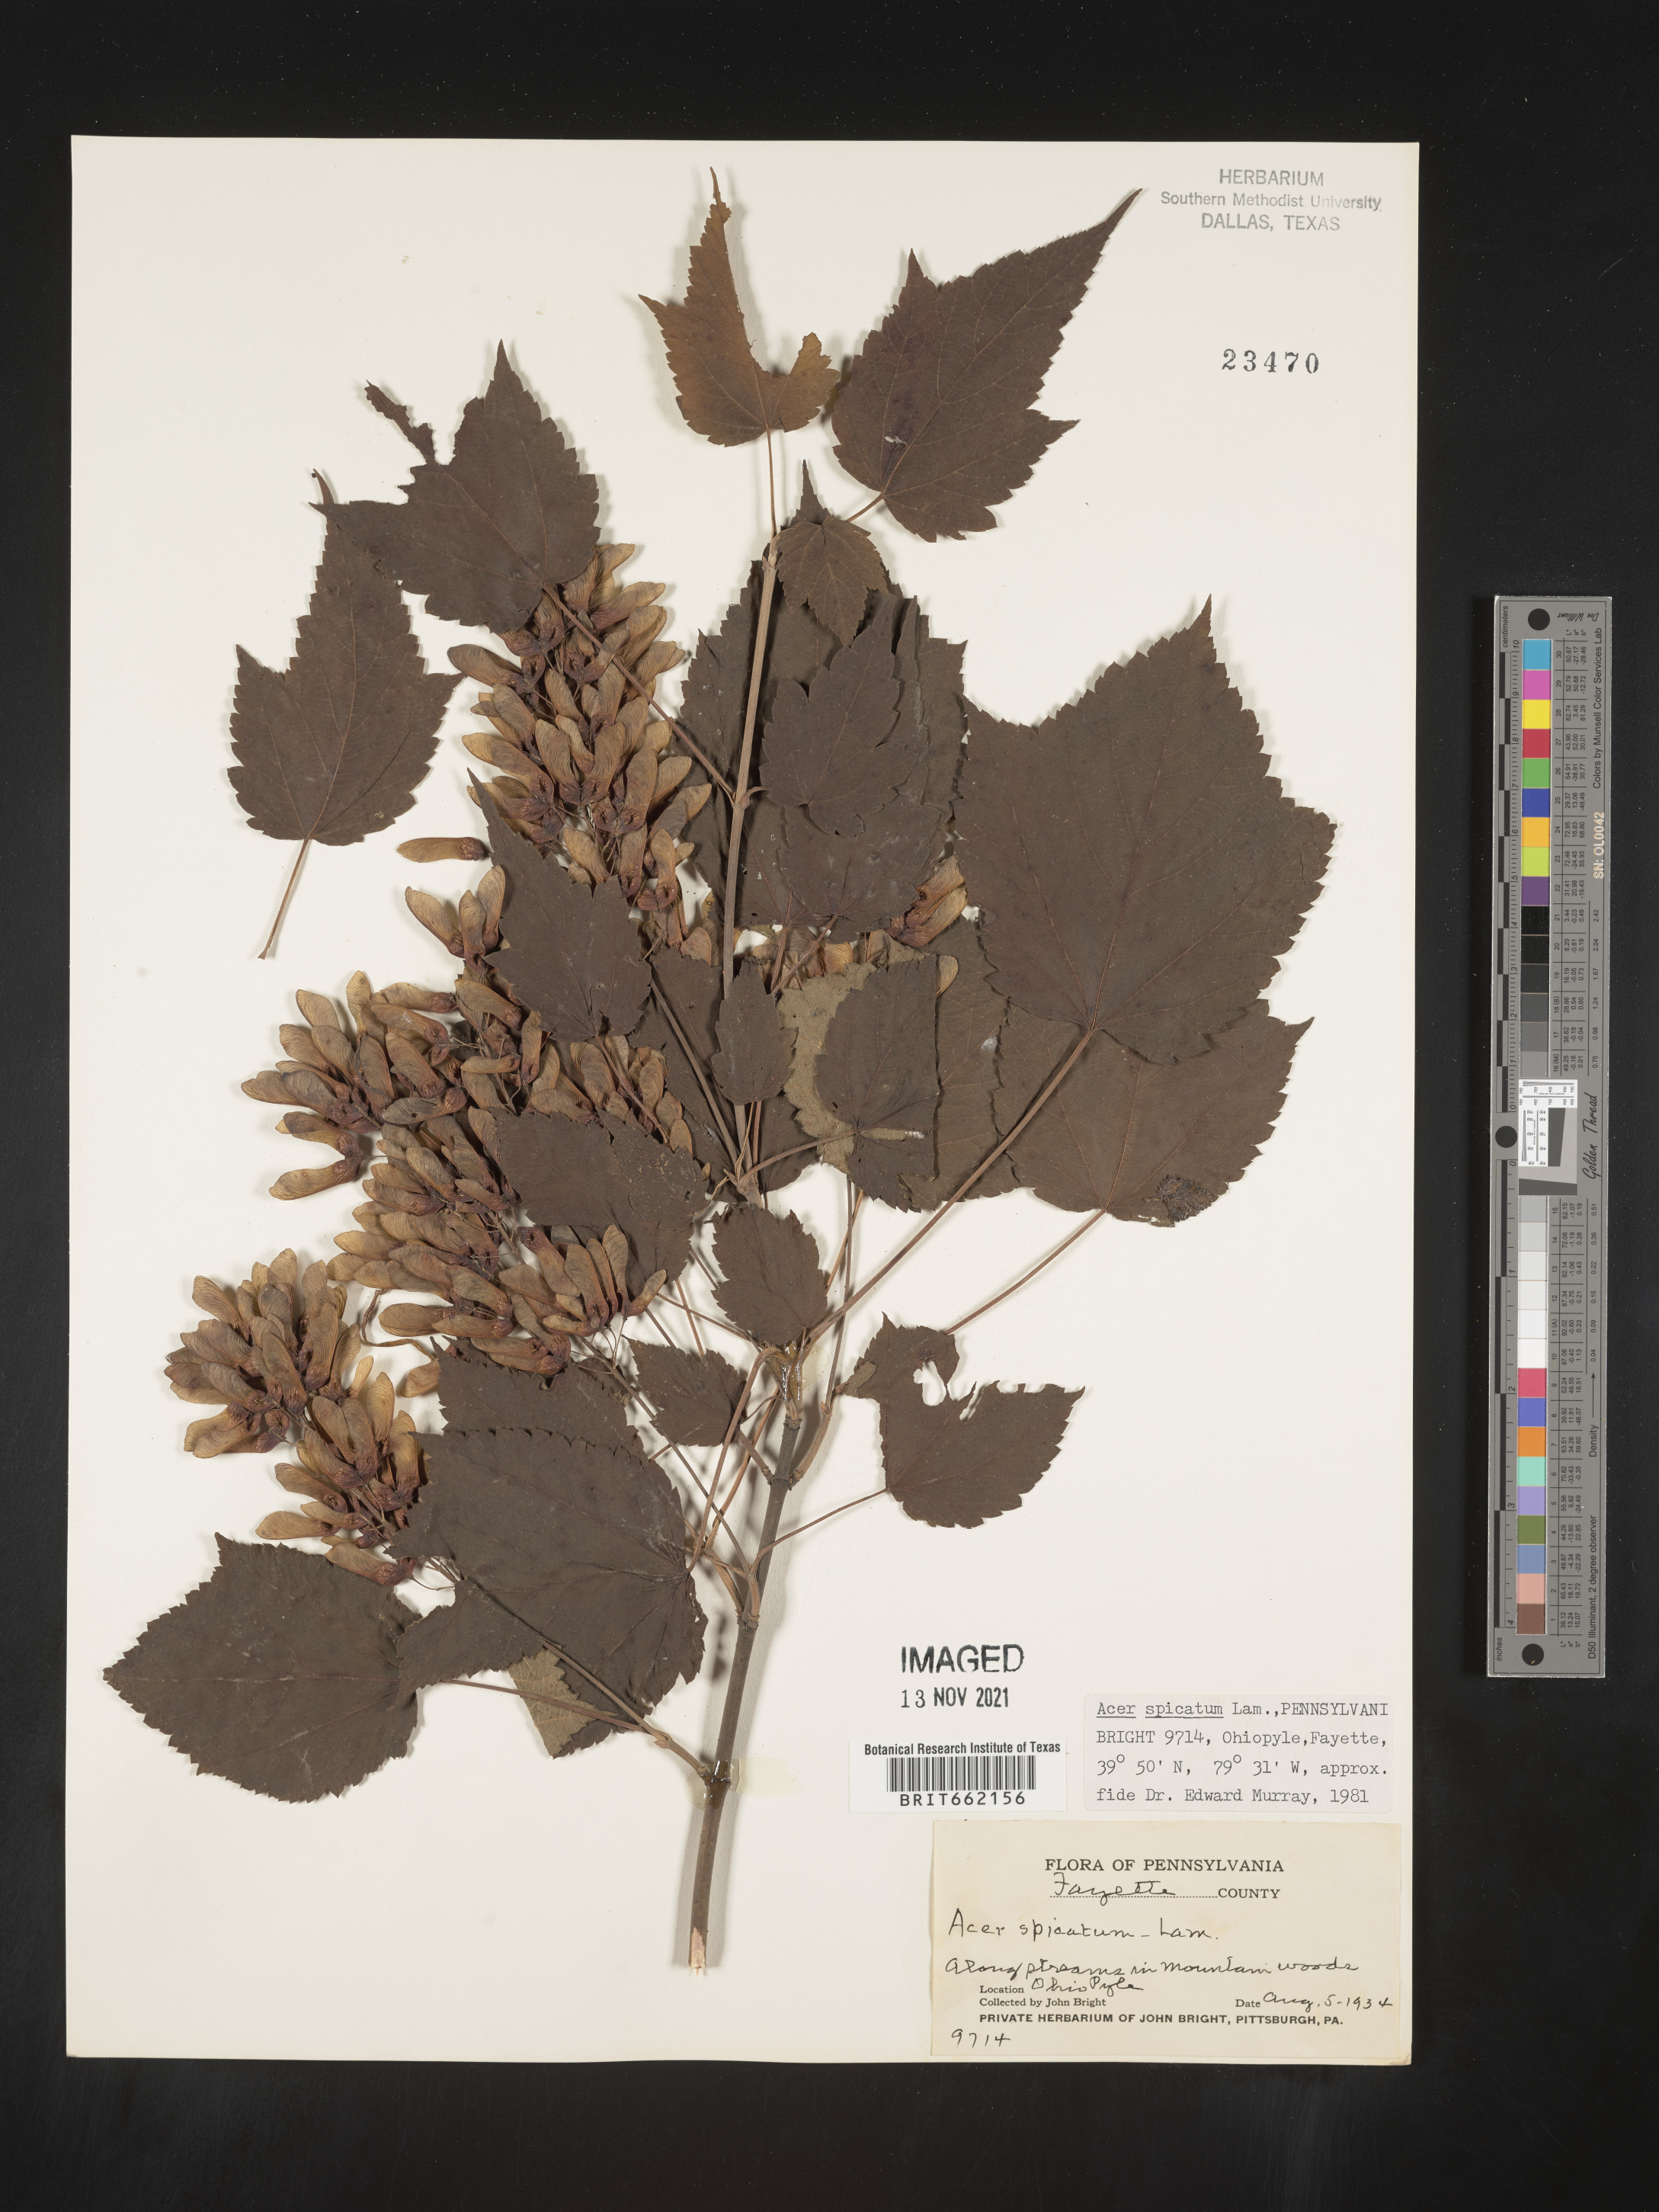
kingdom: Plantae
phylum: Tracheophyta
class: Magnoliopsida
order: Sapindales
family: Sapindaceae
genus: Acer
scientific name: Acer spicatum
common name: Mountain maple
